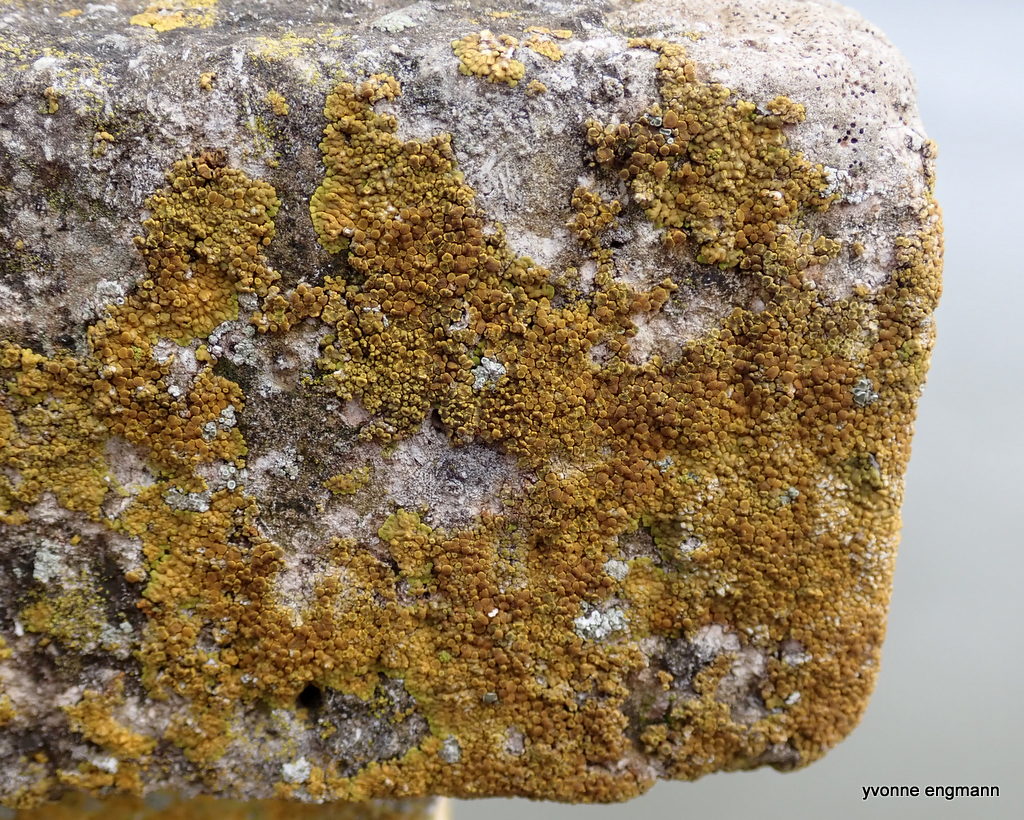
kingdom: Fungi
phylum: Ascomycota
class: Lecanoromycetes
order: Teloschistales
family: Teloschistaceae
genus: Variospora
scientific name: Variospora flavescens
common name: kalk-orangelav
